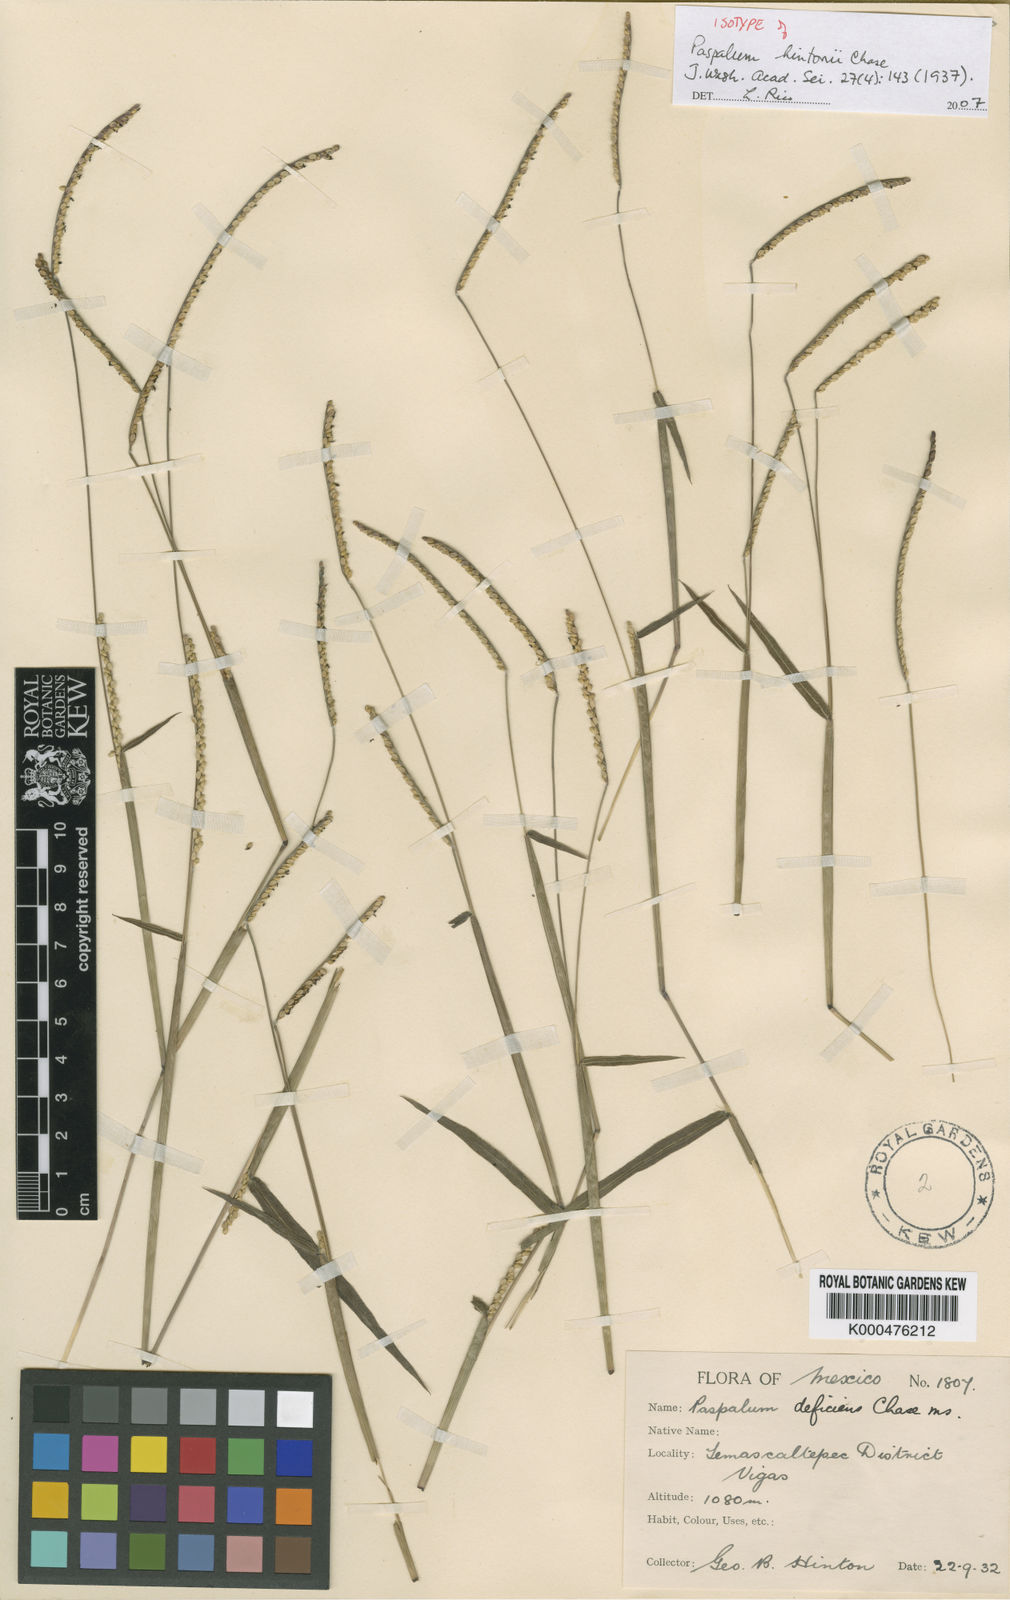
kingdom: Plantae
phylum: Tracheophyta
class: Liliopsida
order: Poales
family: Poaceae
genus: Paspalum
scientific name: Paspalum hintonii
